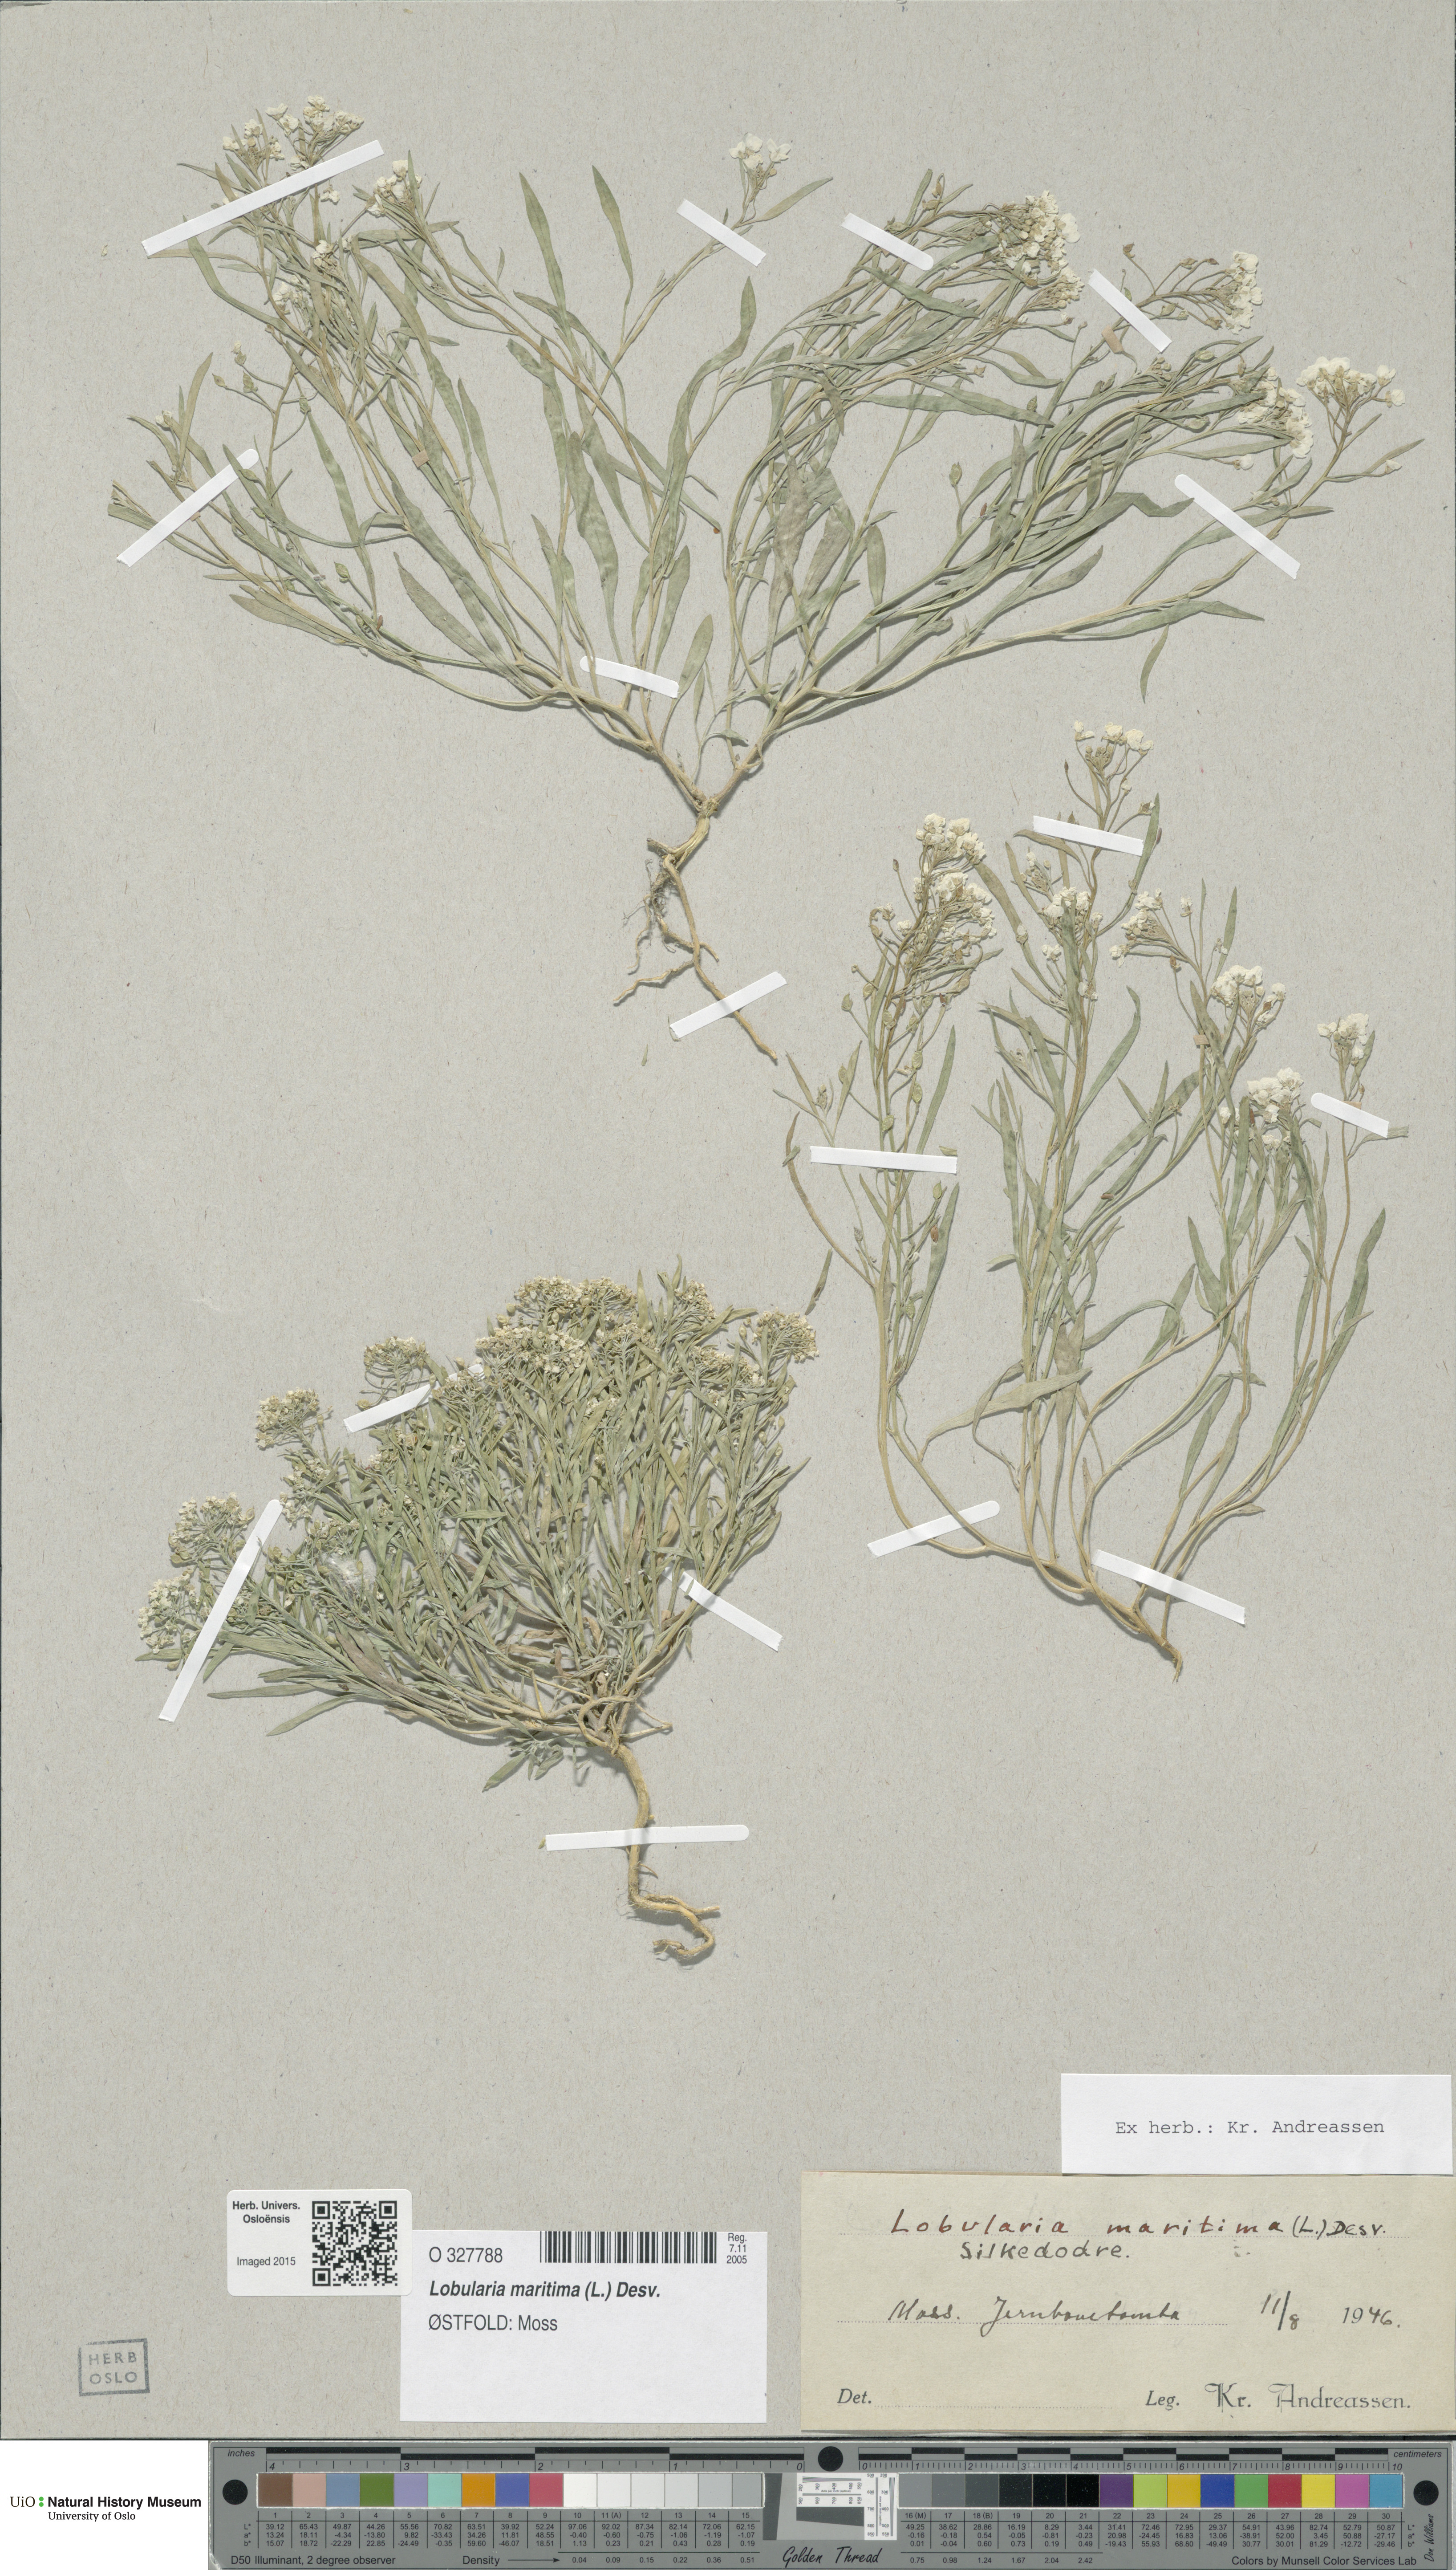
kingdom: Plantae
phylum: Tracheophyta
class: Magnoliopsida
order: Brassicales
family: Brassicaceae
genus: Lobularia
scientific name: Lobularia maritima
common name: Sweet alison
